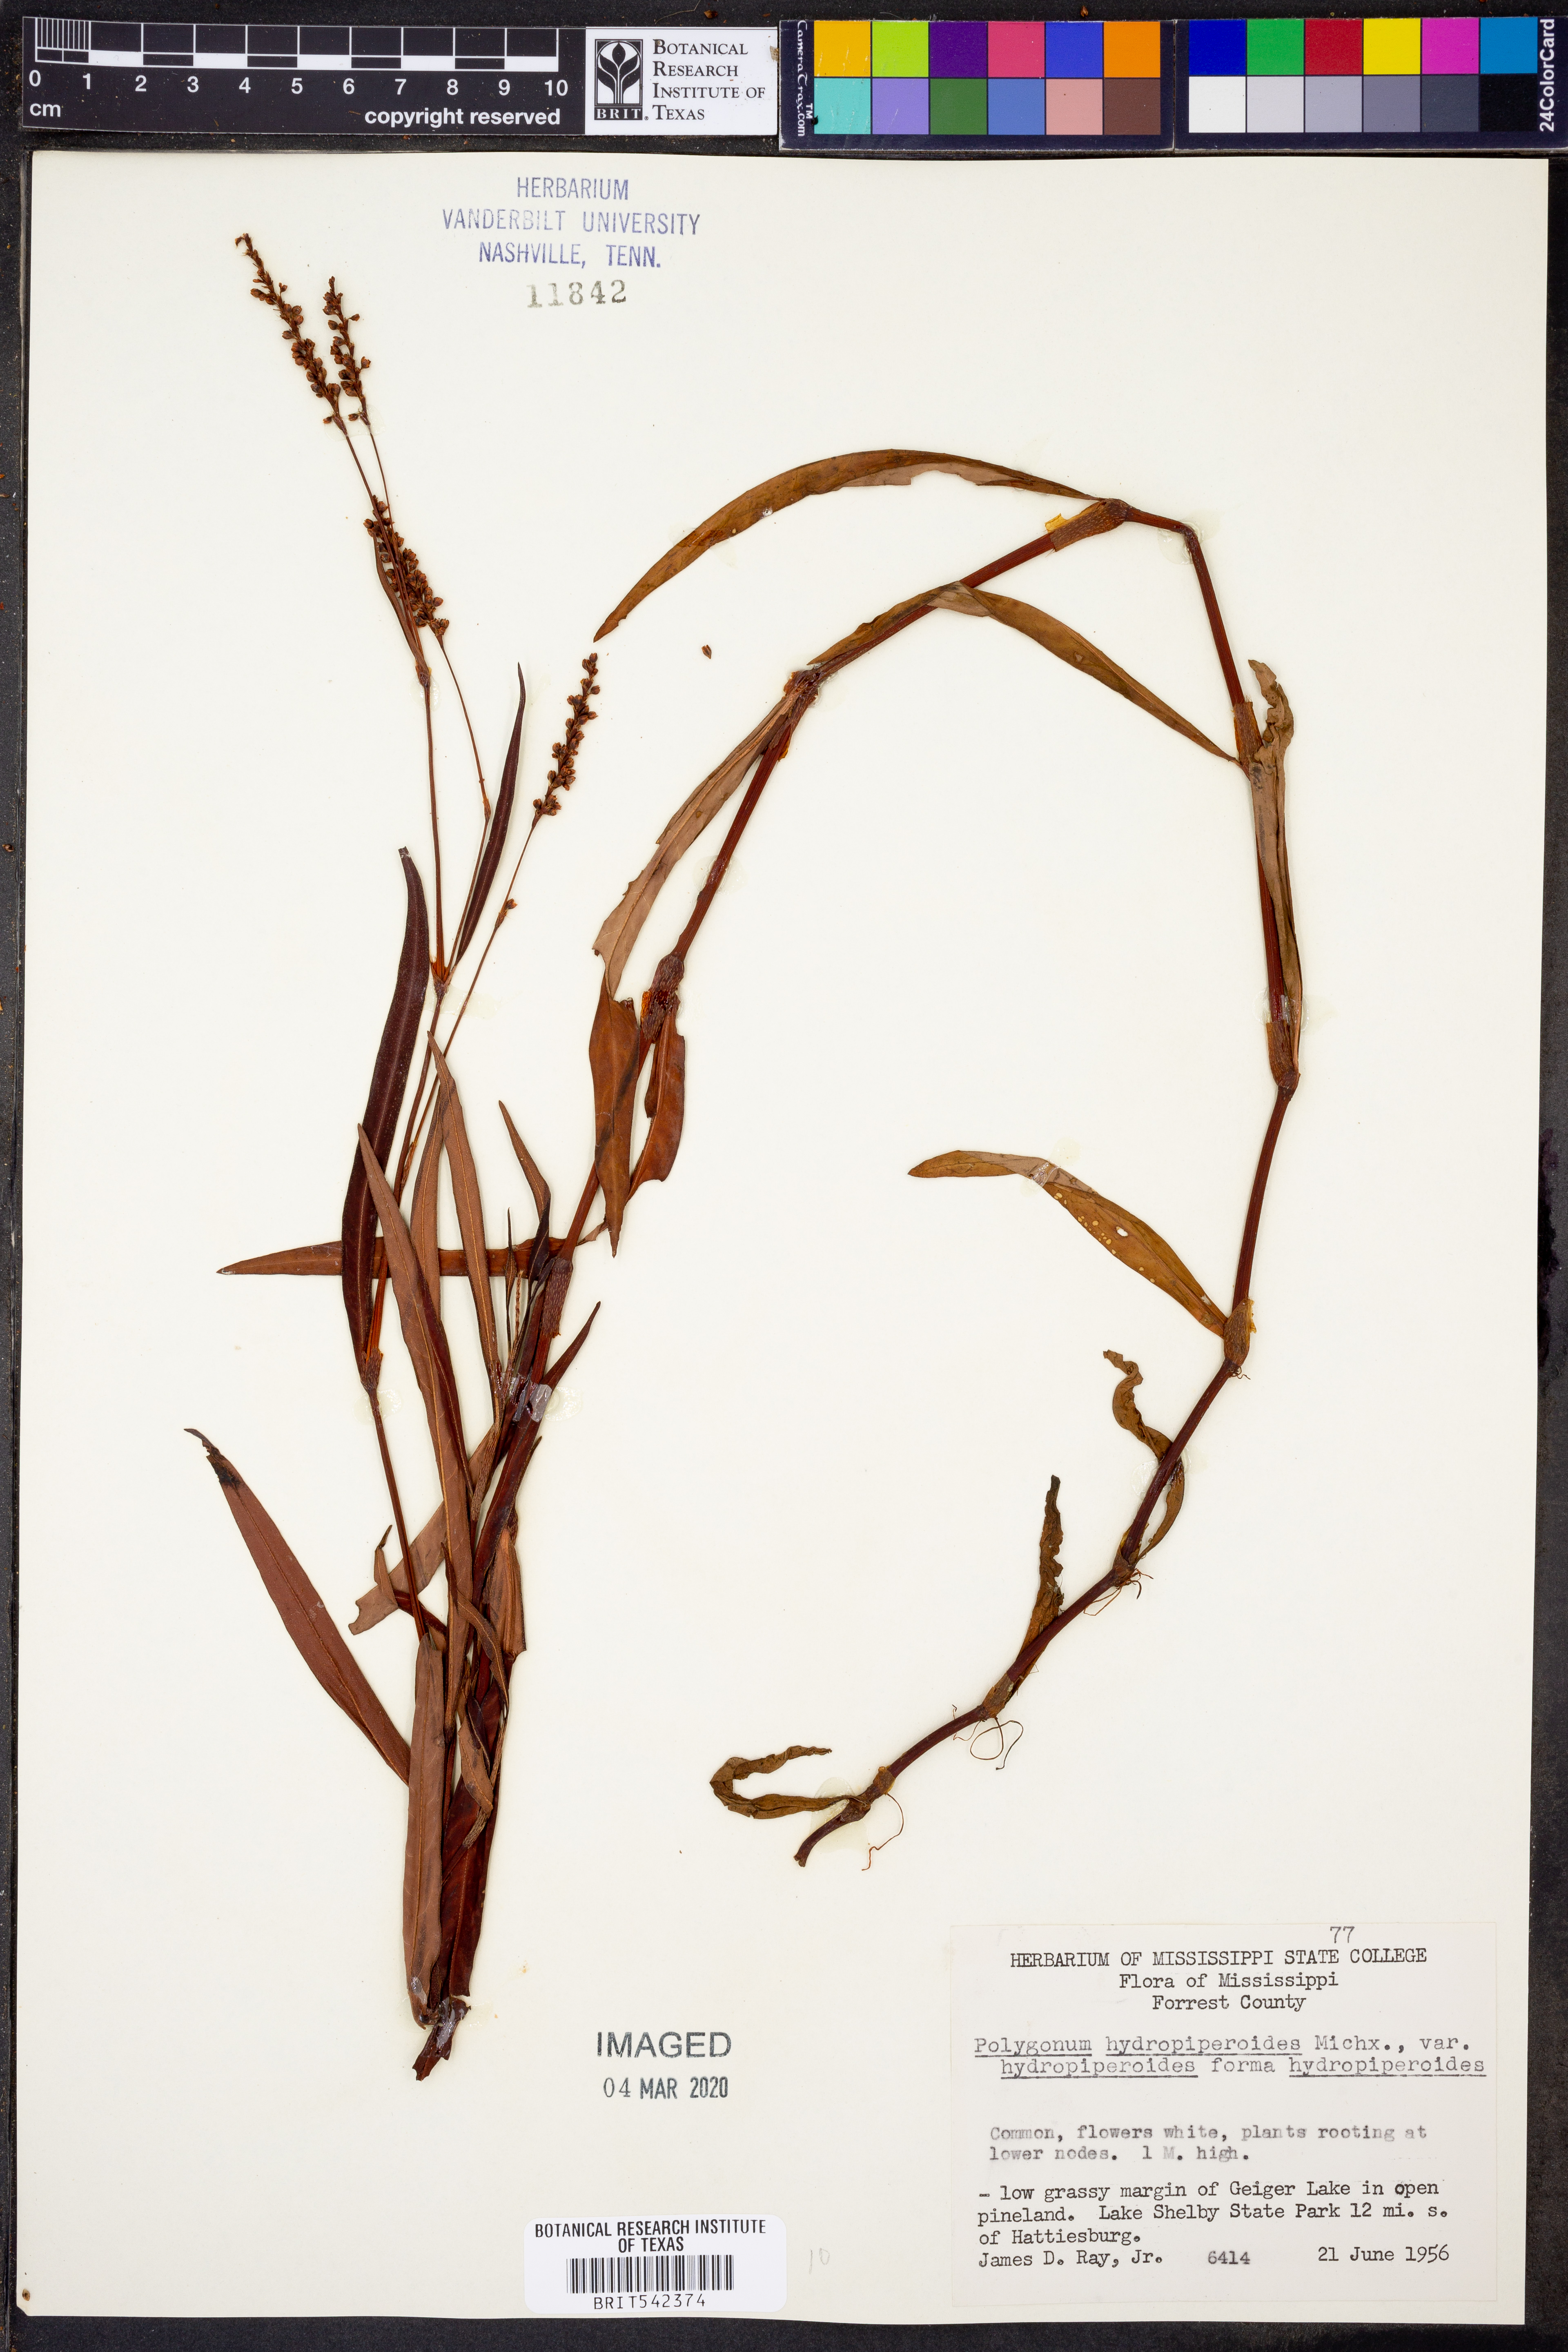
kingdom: Plantae
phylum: Tracheophyta
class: Magnoliopsida
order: Caryophyllales
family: Polygonaceae
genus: Persicaria
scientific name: Persicaria hydropiperoides
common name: Swamp smartweed
